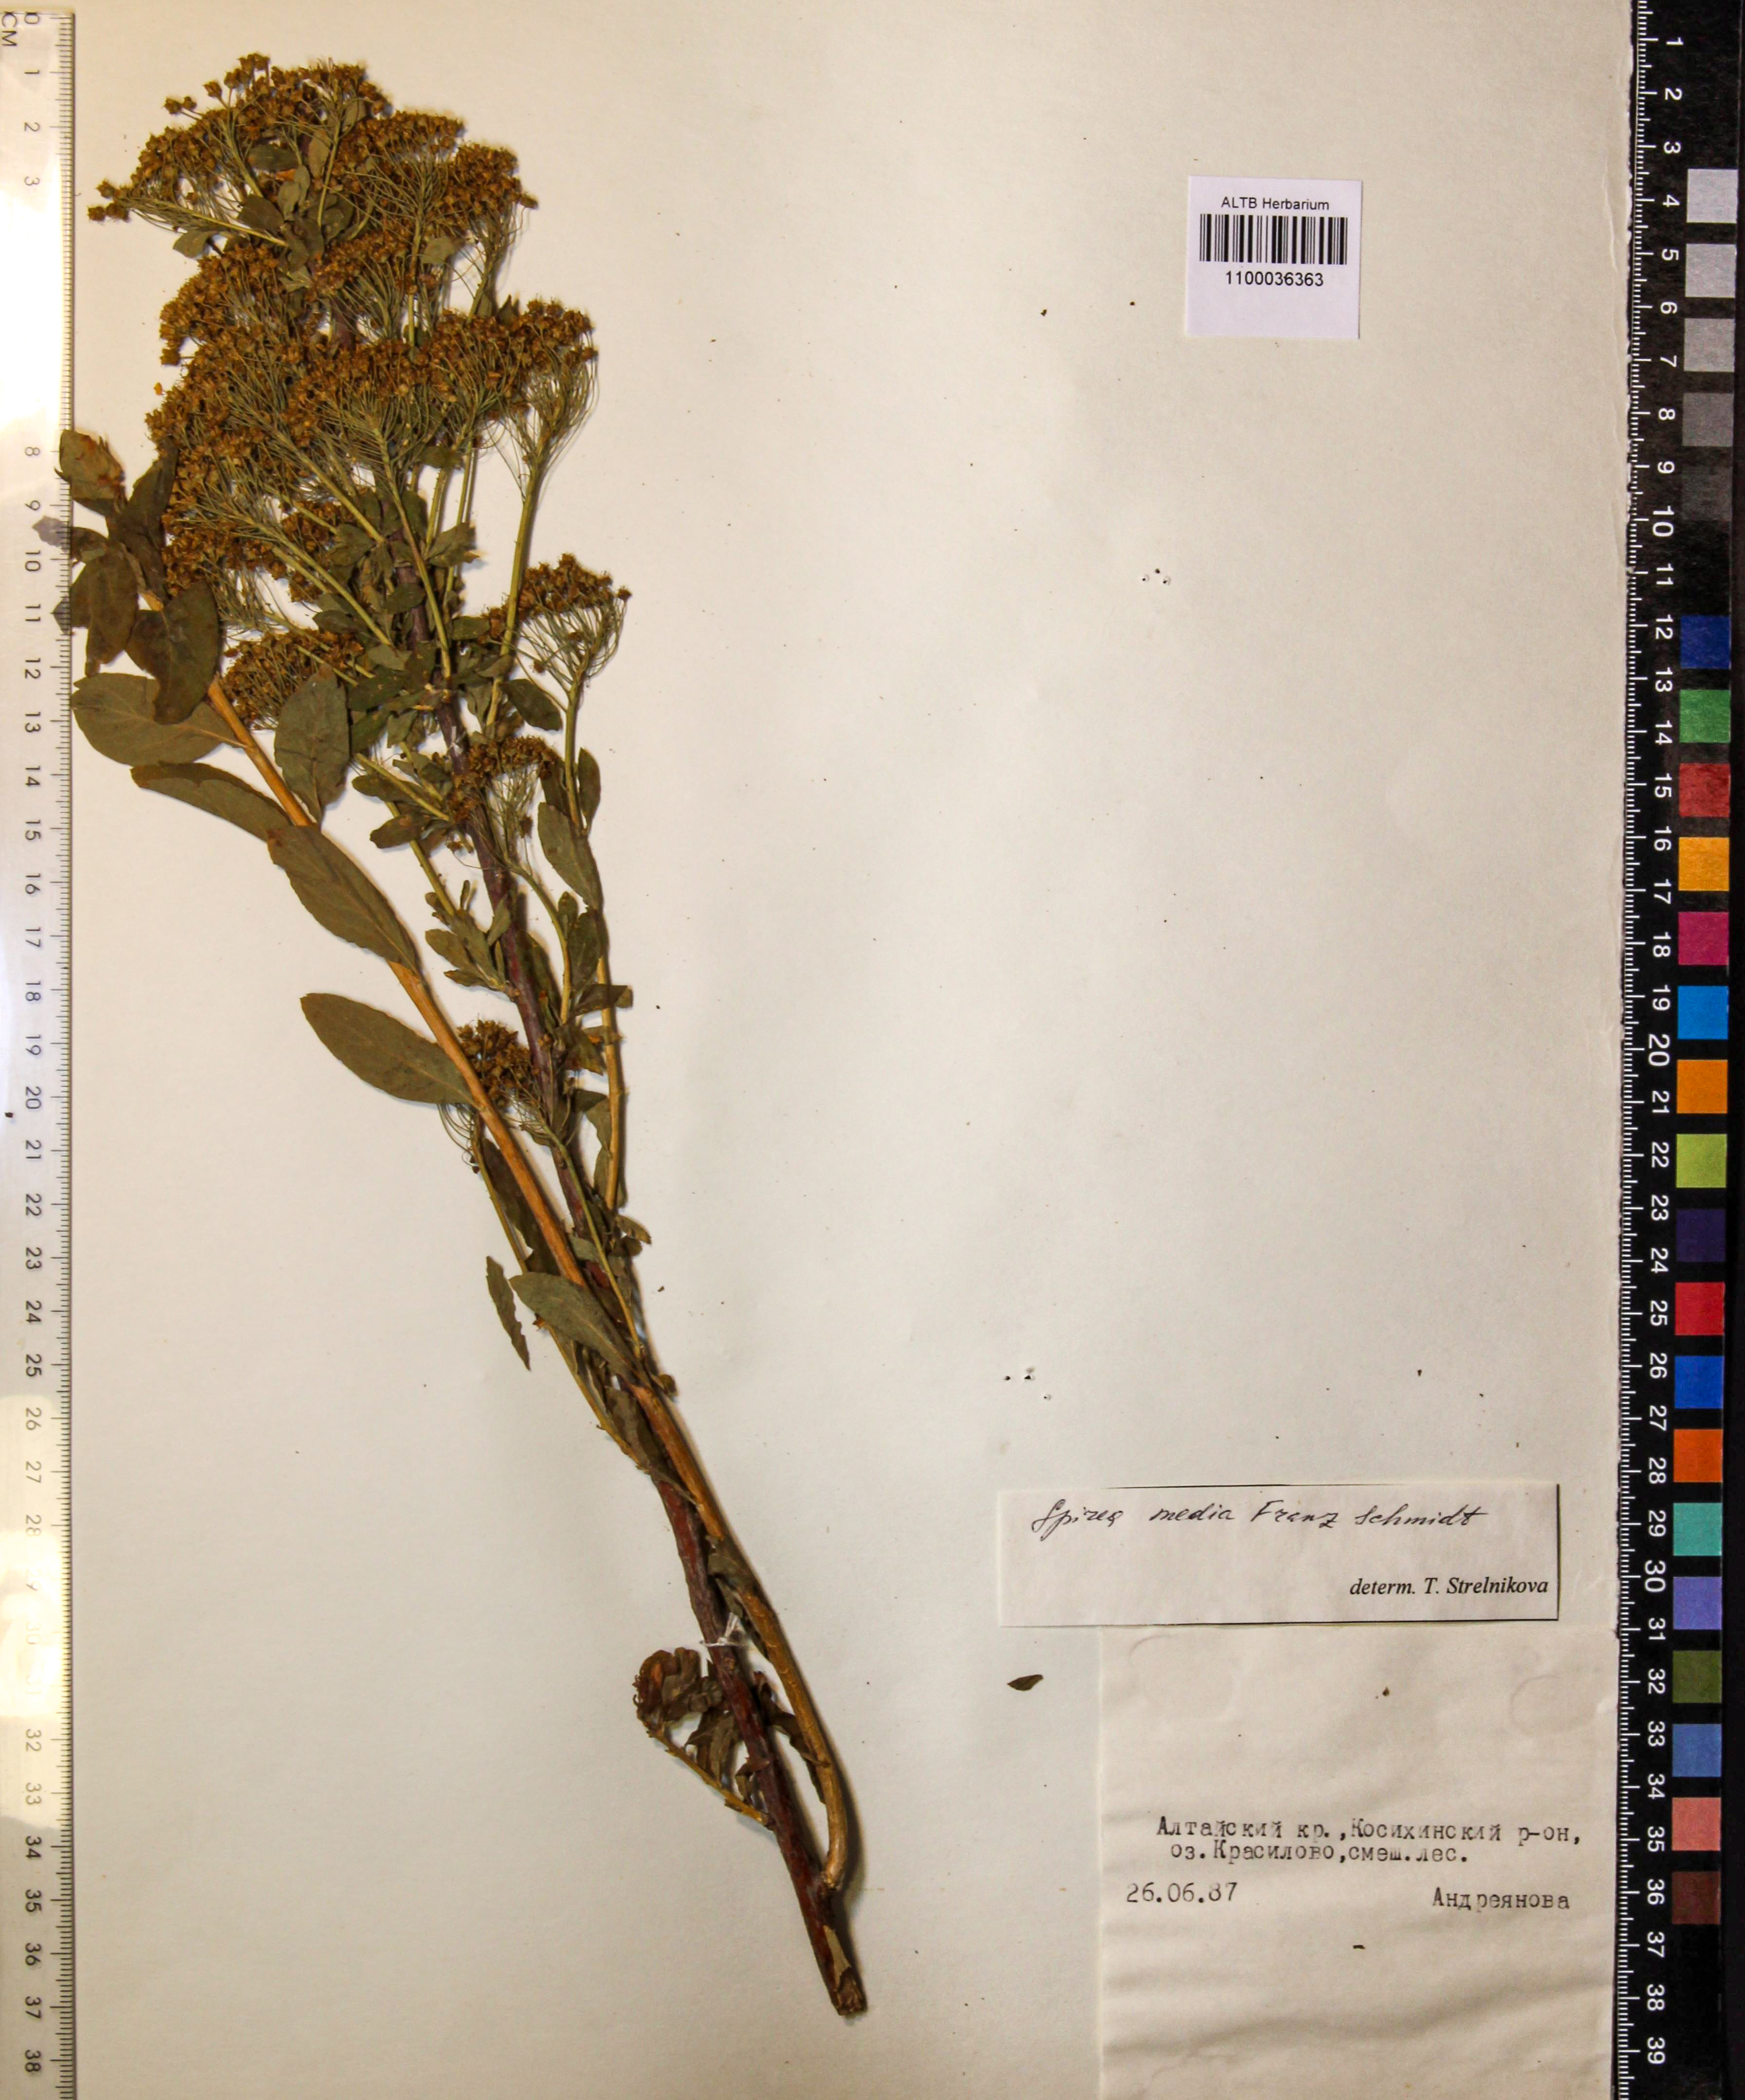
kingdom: Plantae
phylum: Tracheophyta
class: Magnoliopsida
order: Rosales
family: Rosaceae
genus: Spiraea
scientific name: Spiraea media
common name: Russian spiraea
